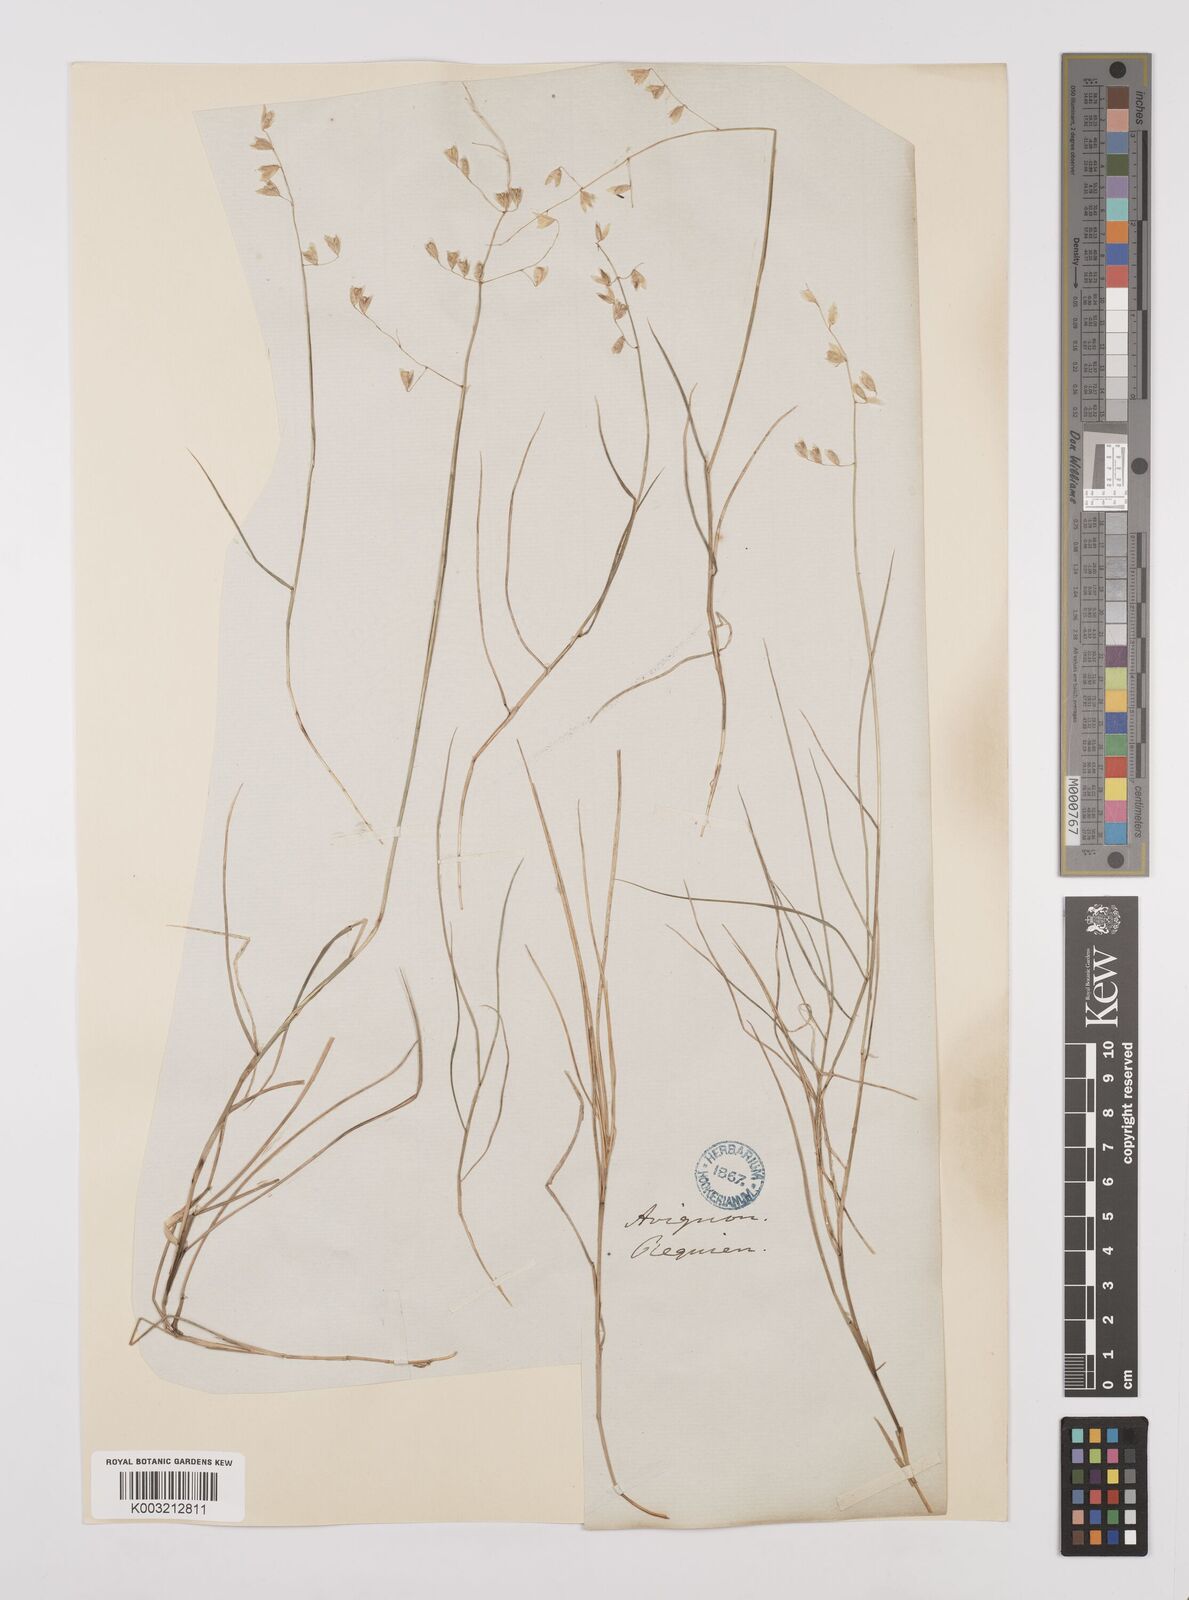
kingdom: Plantae
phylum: Tracheophyta
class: Liliopsida
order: Poales
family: Poaceae
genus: Melica
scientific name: Melica minuta
